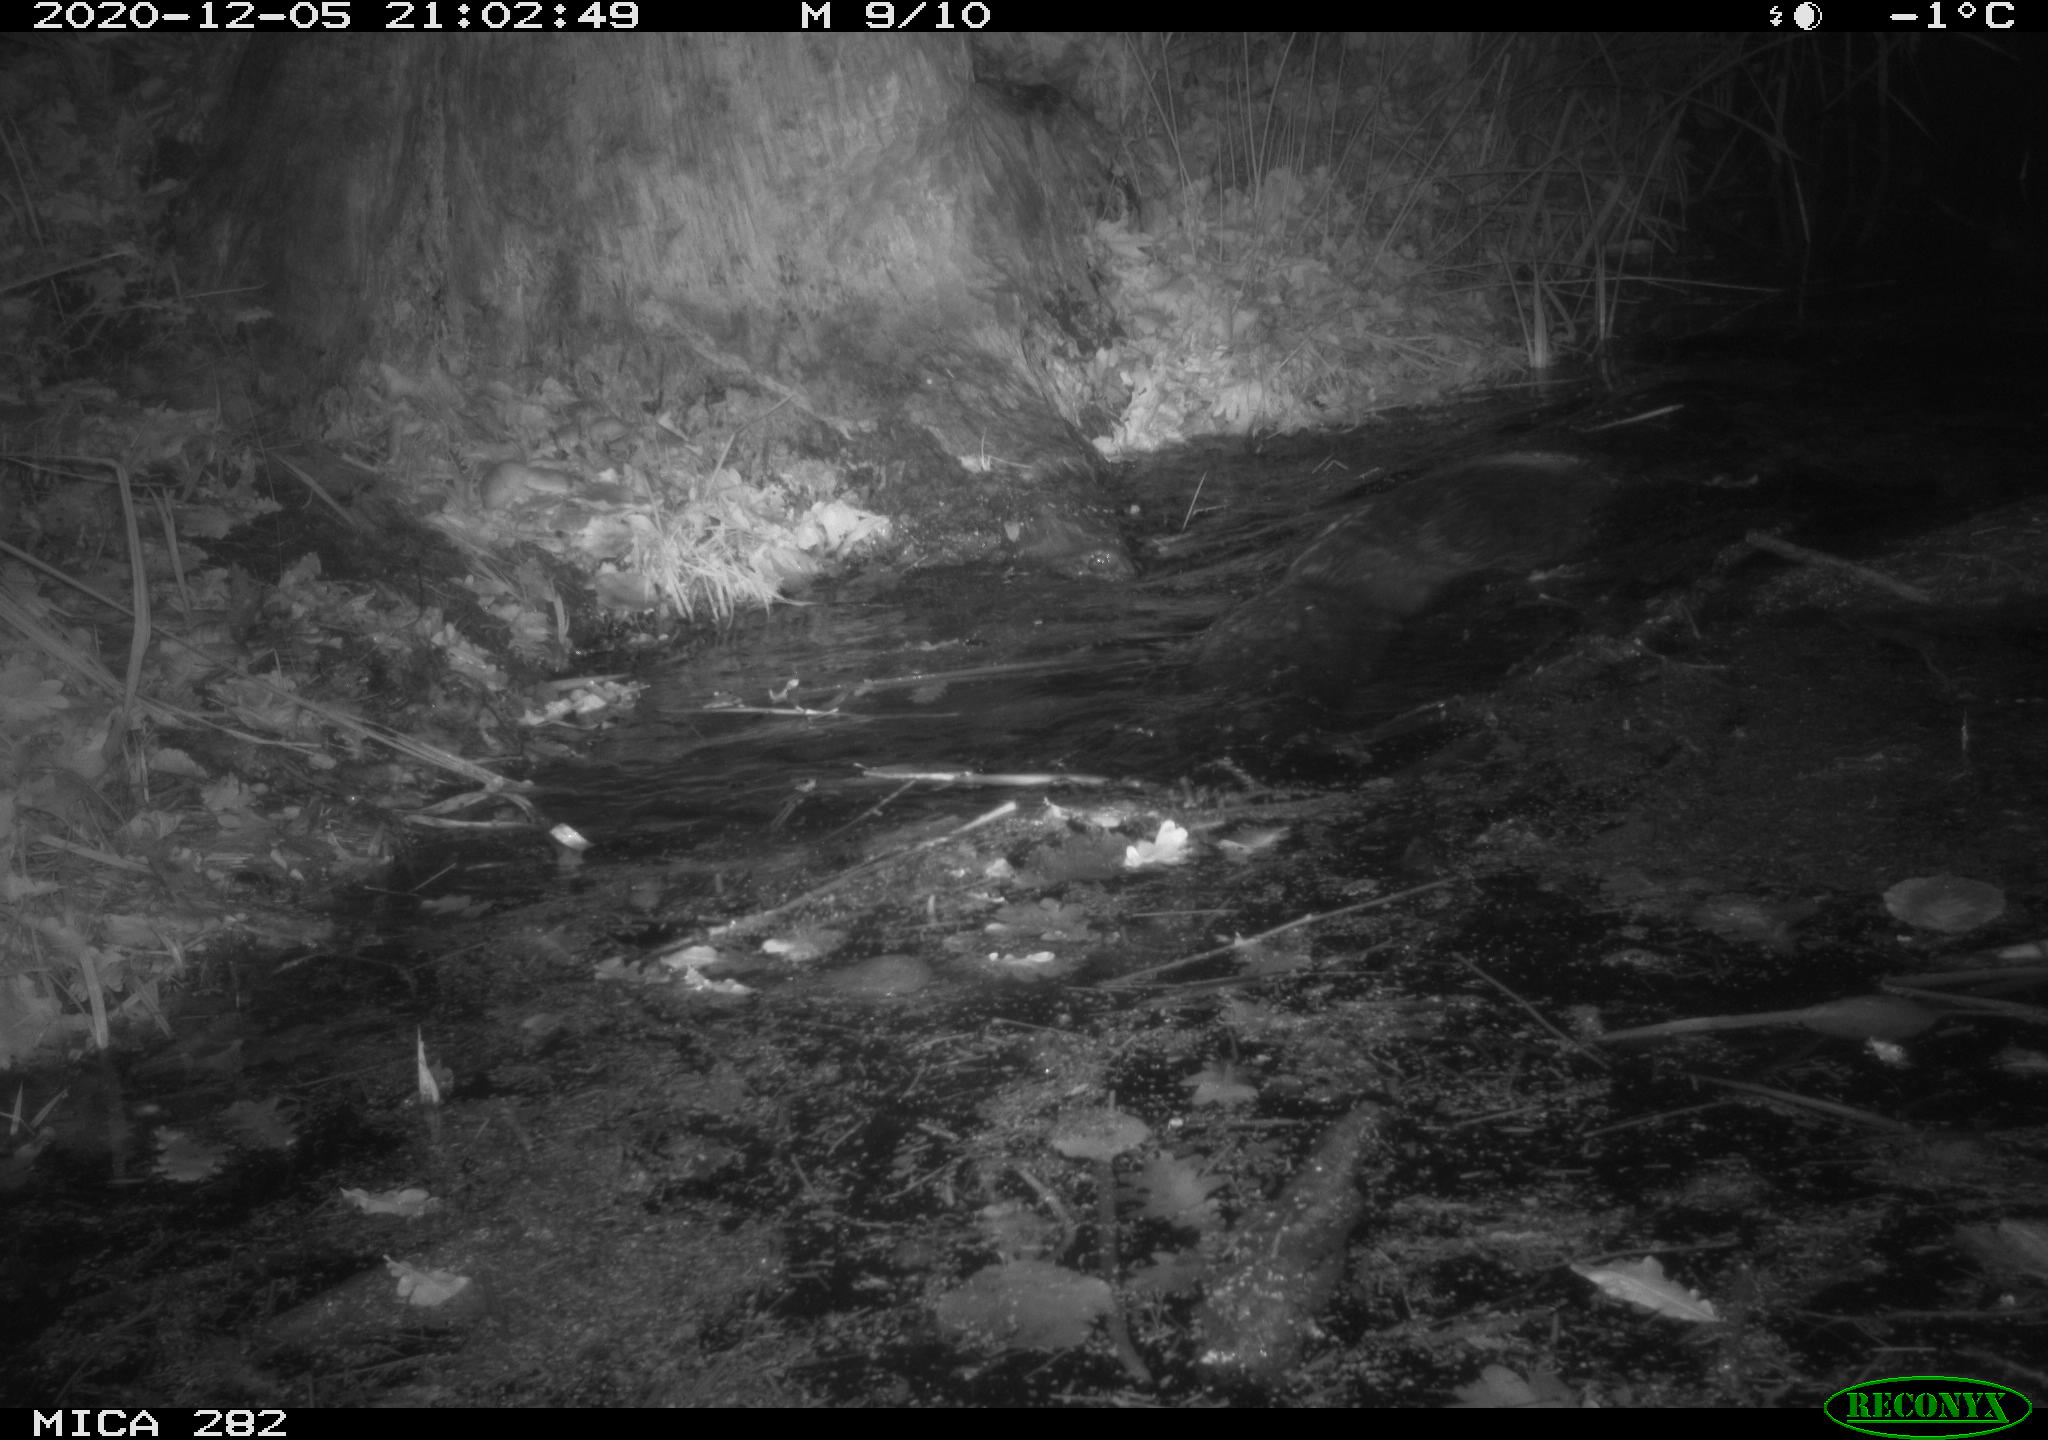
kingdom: Animalia
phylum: Chordata
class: Mammalia
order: Rodentia
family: Castoridae
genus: Castor
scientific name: Castor fiber
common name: Eurasian beaver
